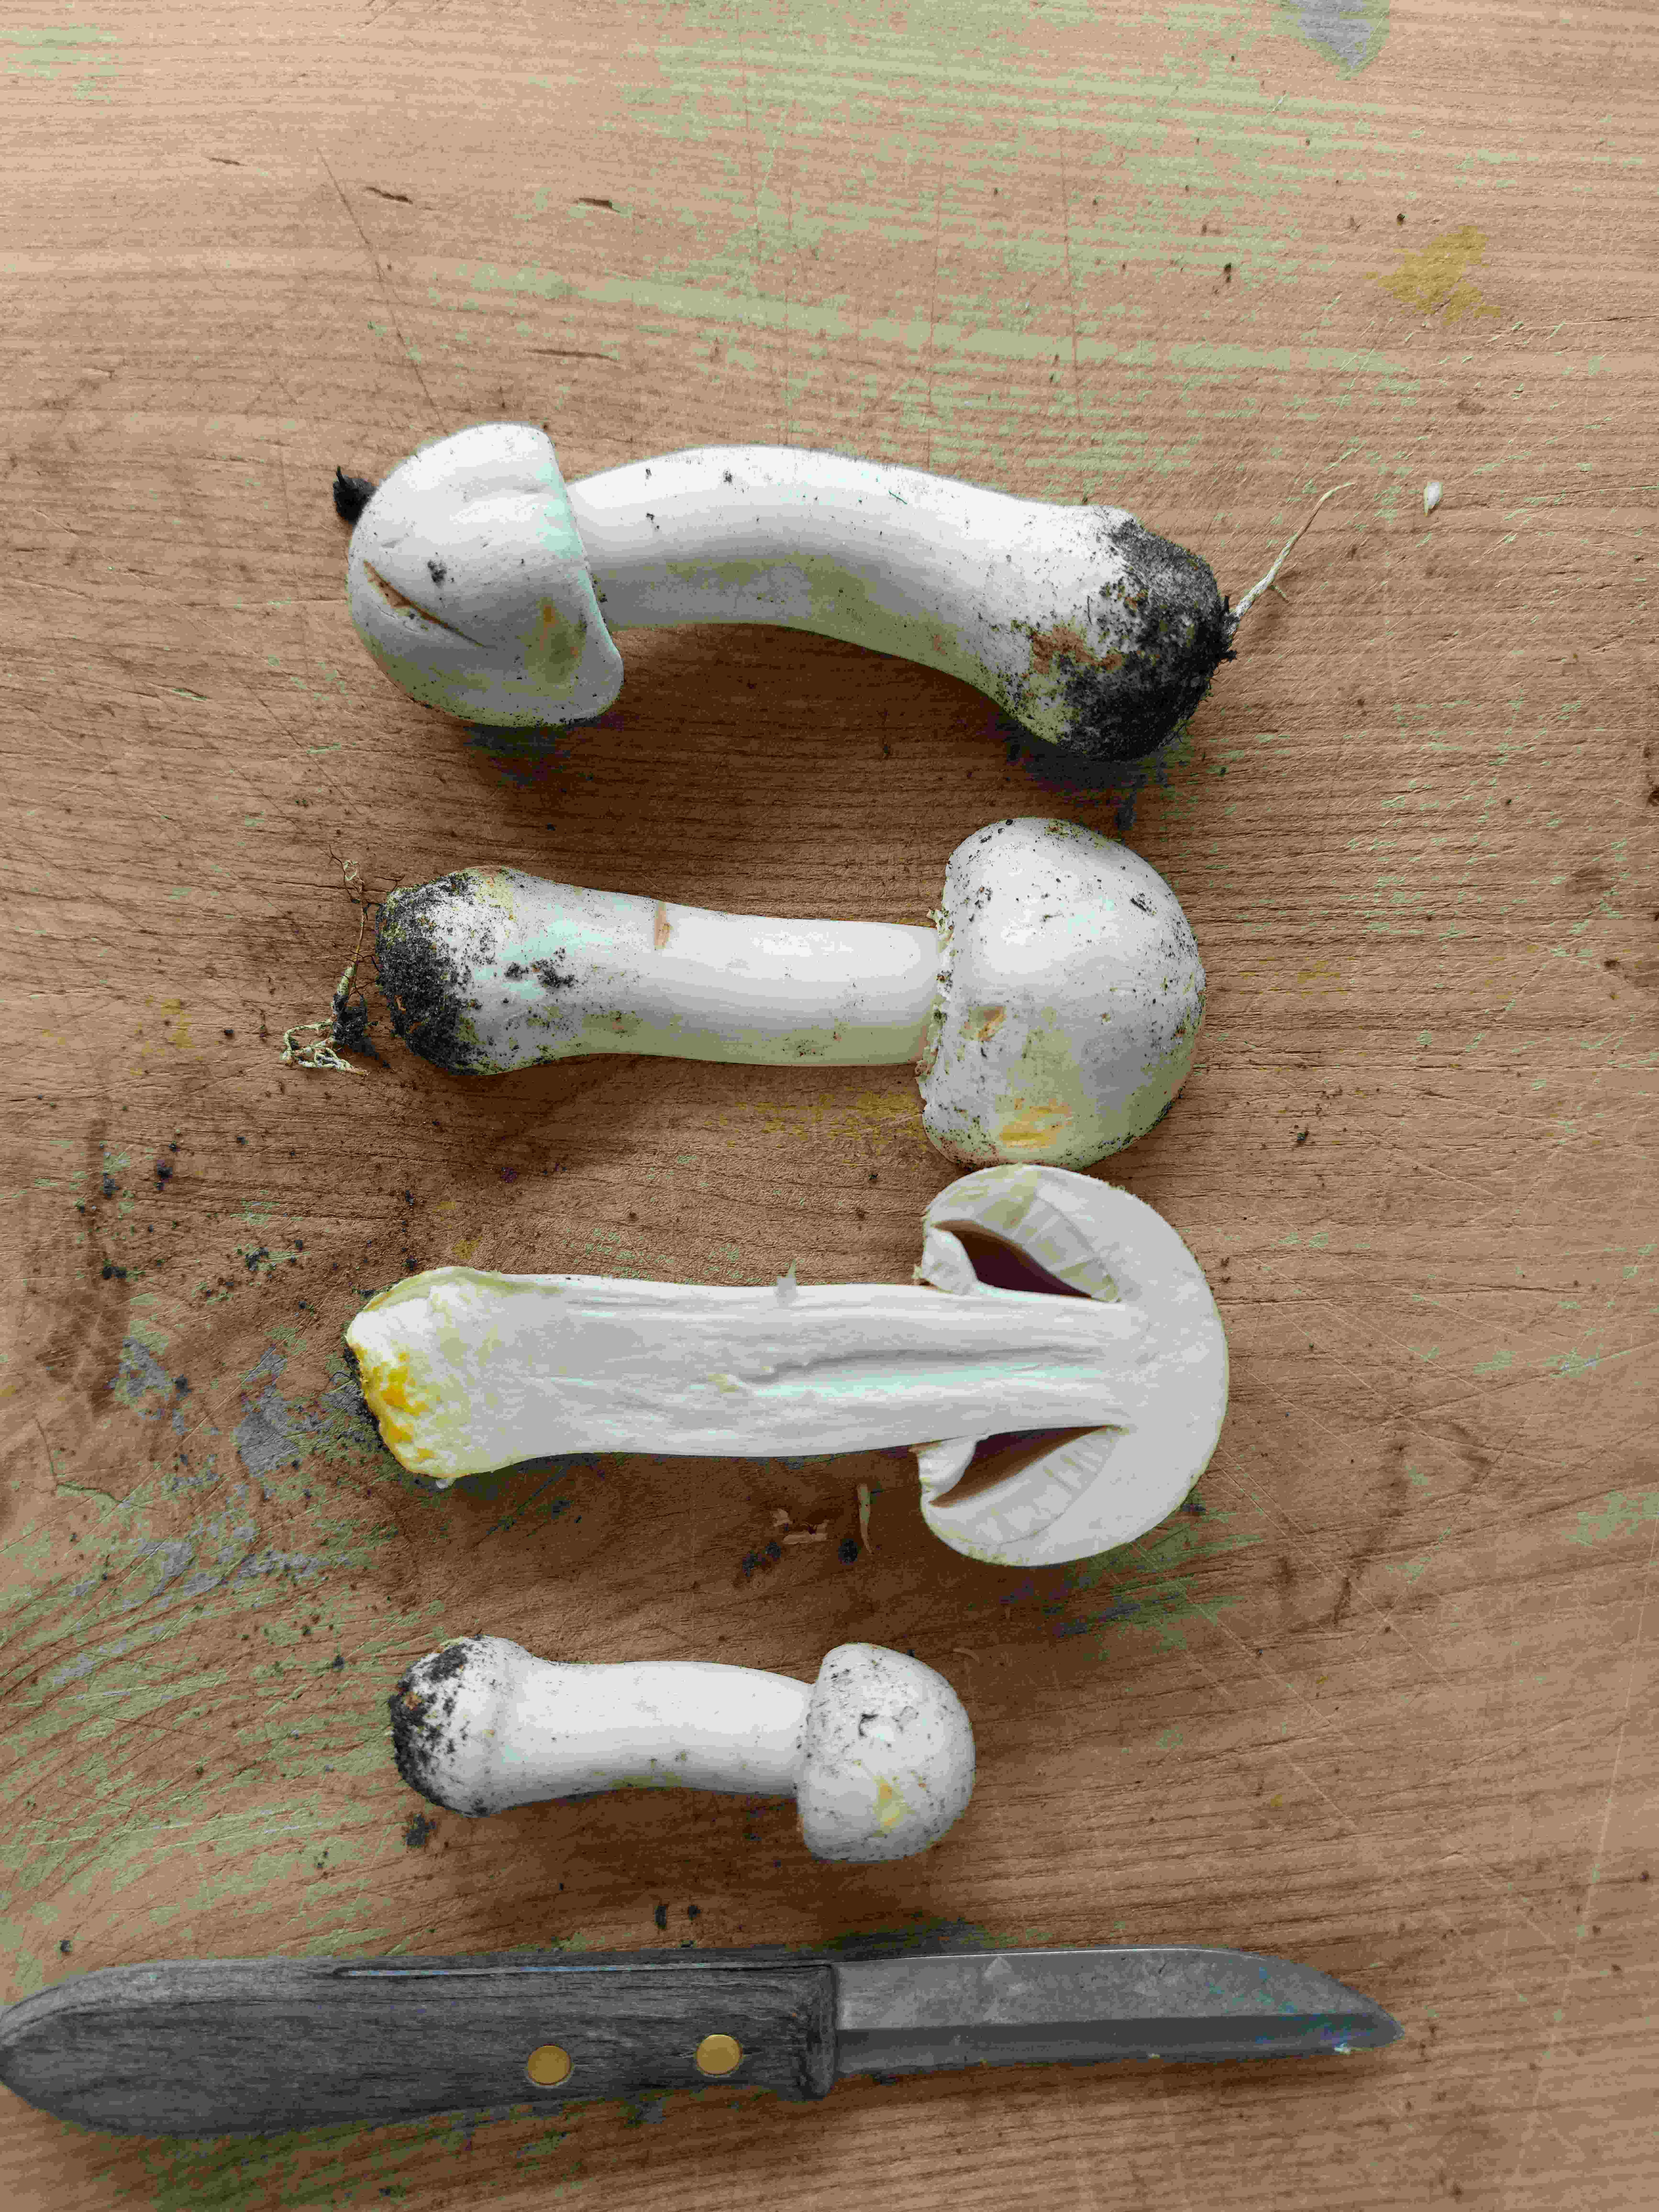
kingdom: Fungi
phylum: Basidiomycota
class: Agaricomycetes
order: Agaricales
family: Agaricaceae
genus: Agaricus
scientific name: Agaricus xanthodermus
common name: karbol-champignon
